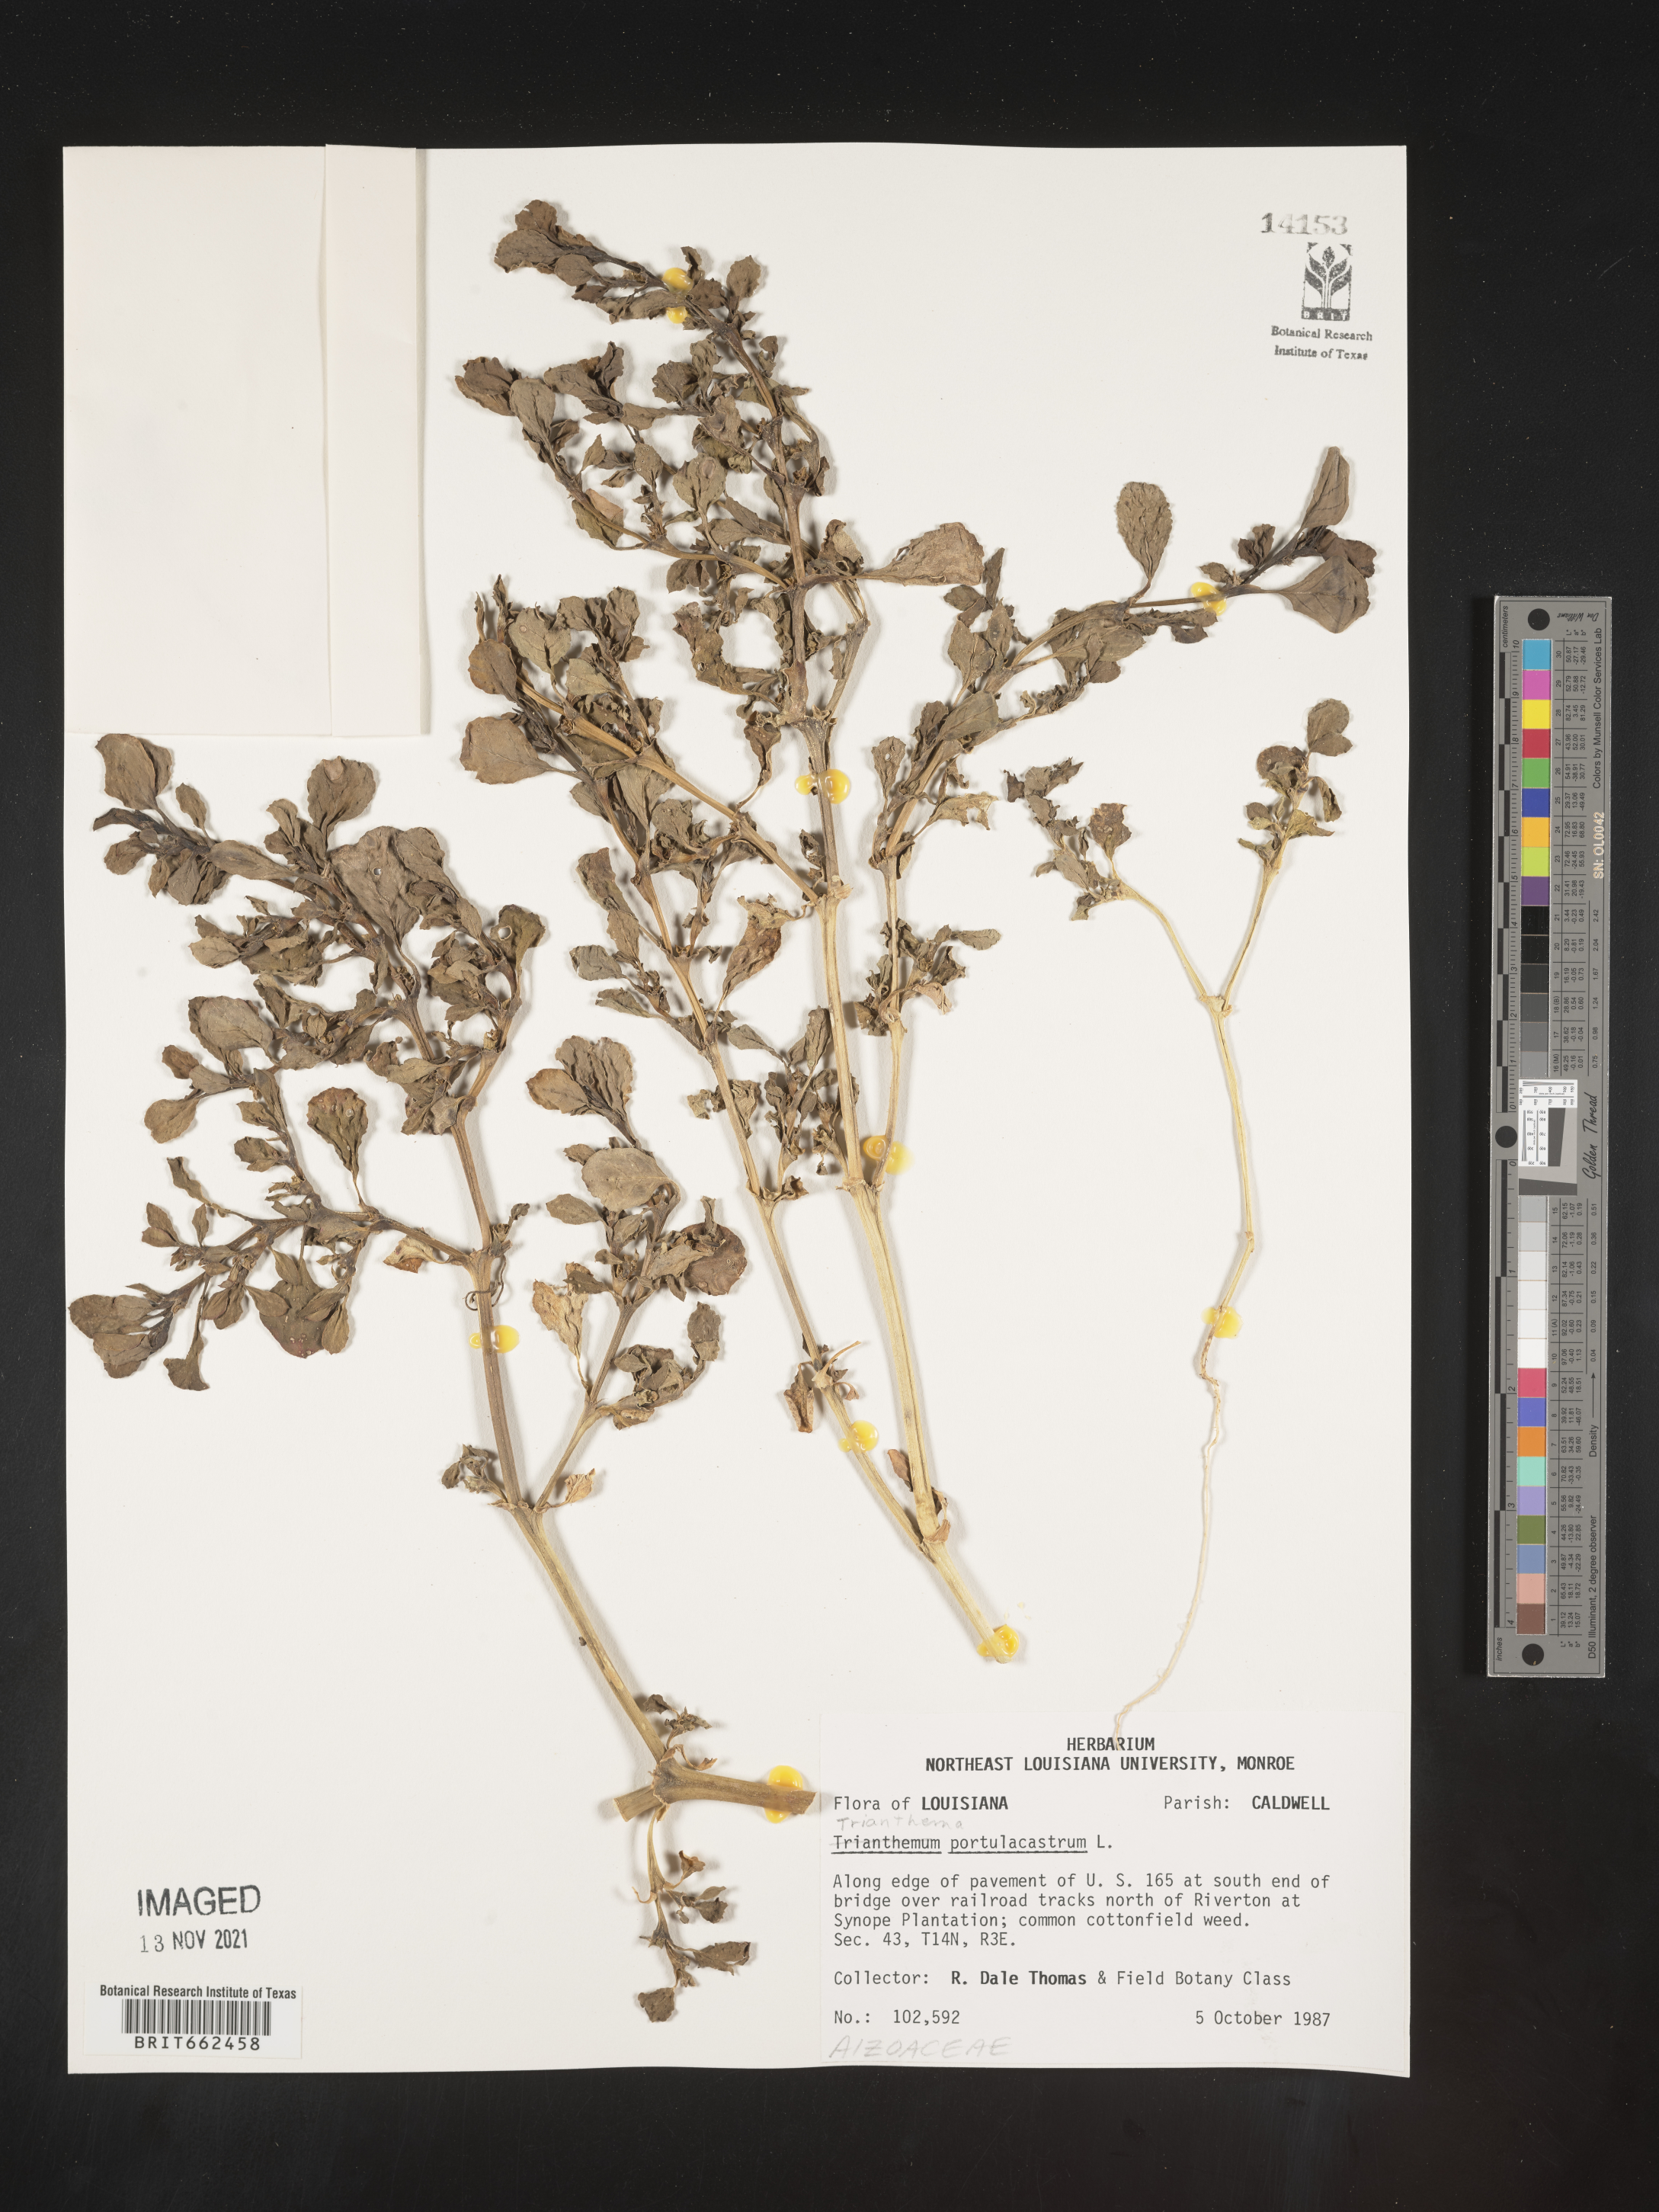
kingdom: Plantae
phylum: Tracheophyta
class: Magnoliopsida
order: Caryophyllales
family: Aizoaceae
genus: Trianthema
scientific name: Trianthema
